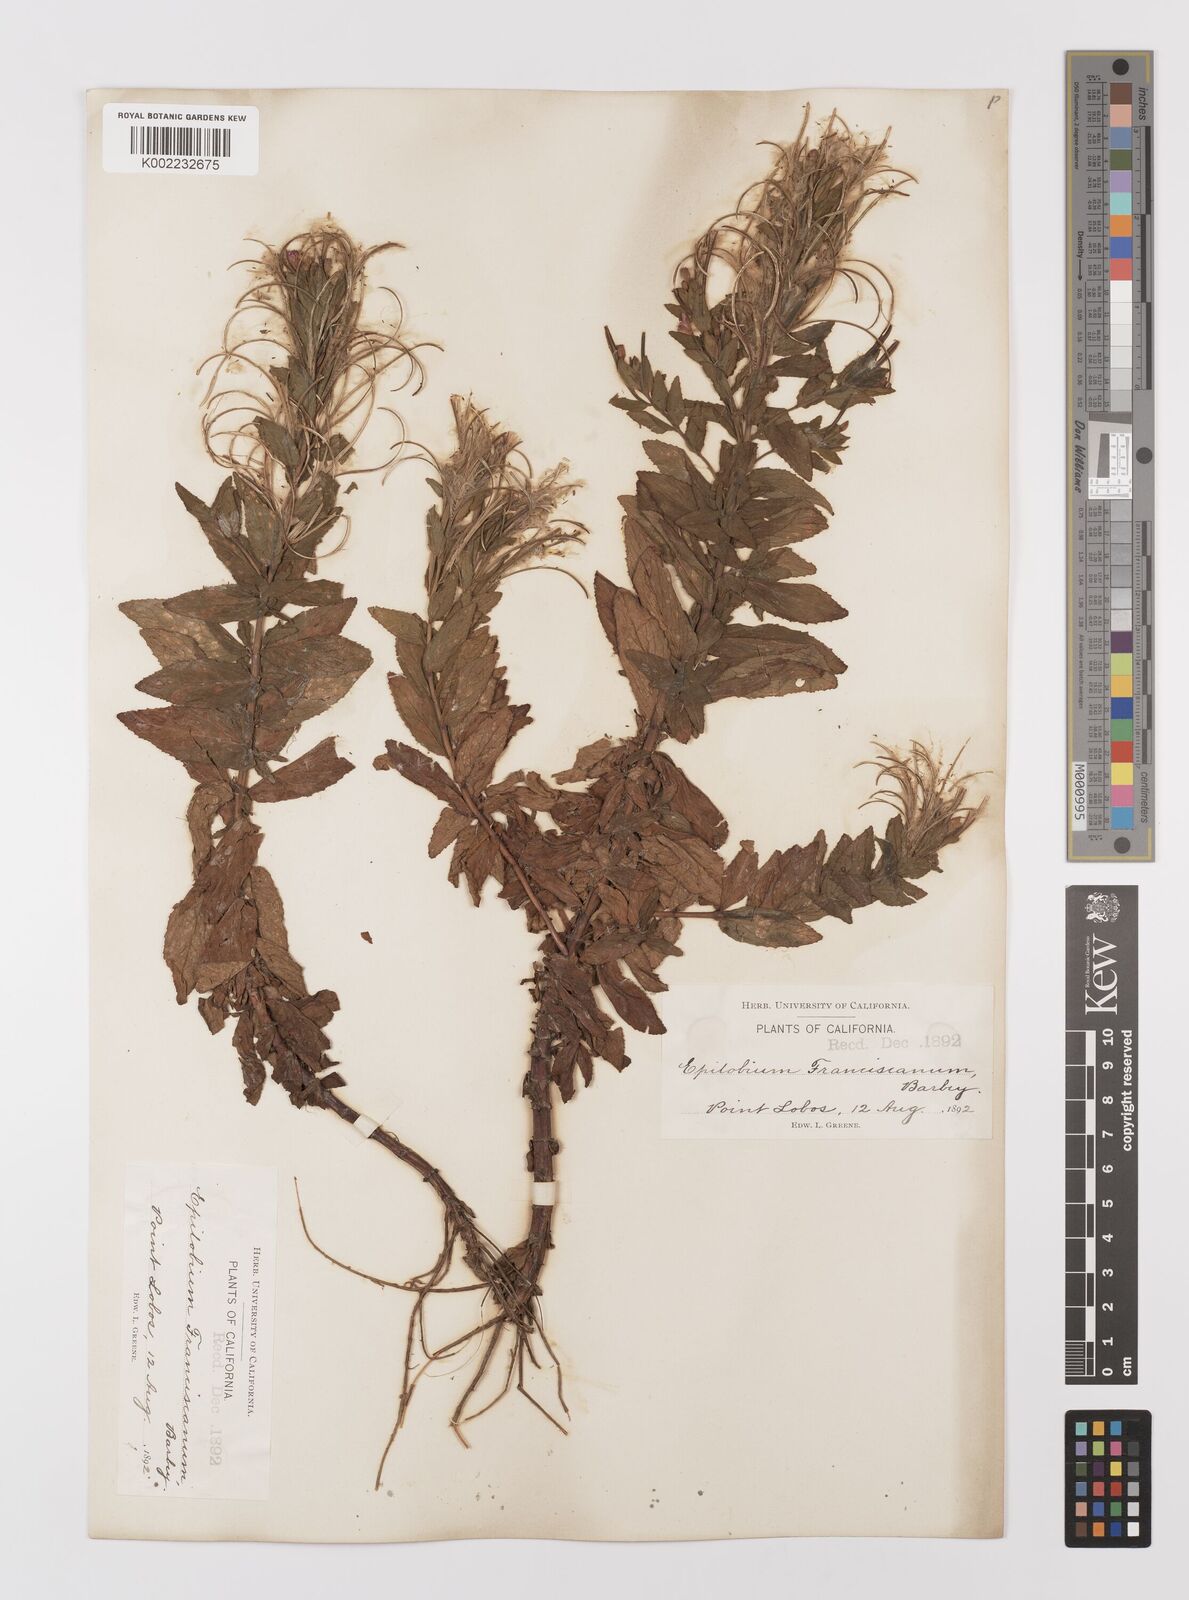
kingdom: Plantae
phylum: Tracheophyta
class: Magnoliopsida
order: Myrtales
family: Onagraceae
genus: Epilobium
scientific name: Epilobium ciliatum
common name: American willowherb
